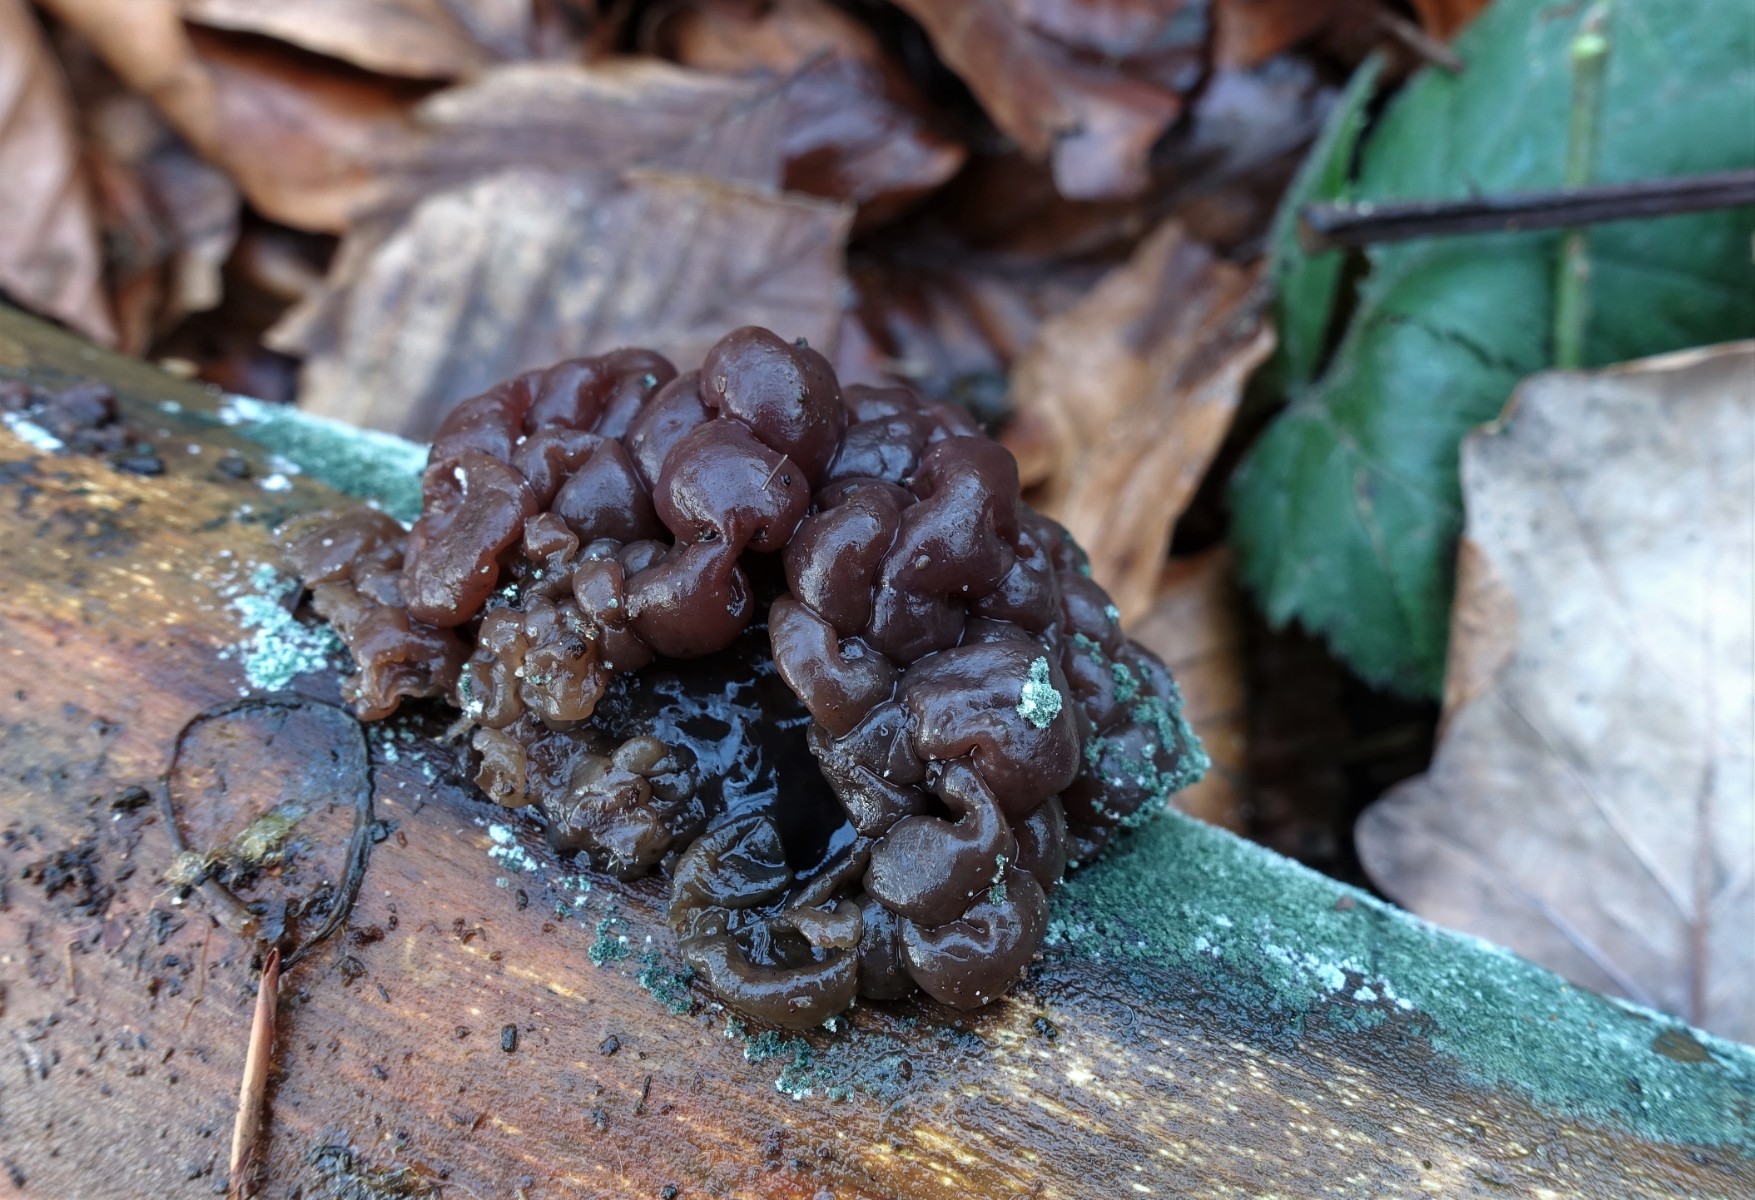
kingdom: Fungi
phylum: Ascomycota
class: Leotiomycetes
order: Helotiales
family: Gelatinodiscaceae
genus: Ascotremella
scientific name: Ascotremella faginea
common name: hjerne-bævreskive
